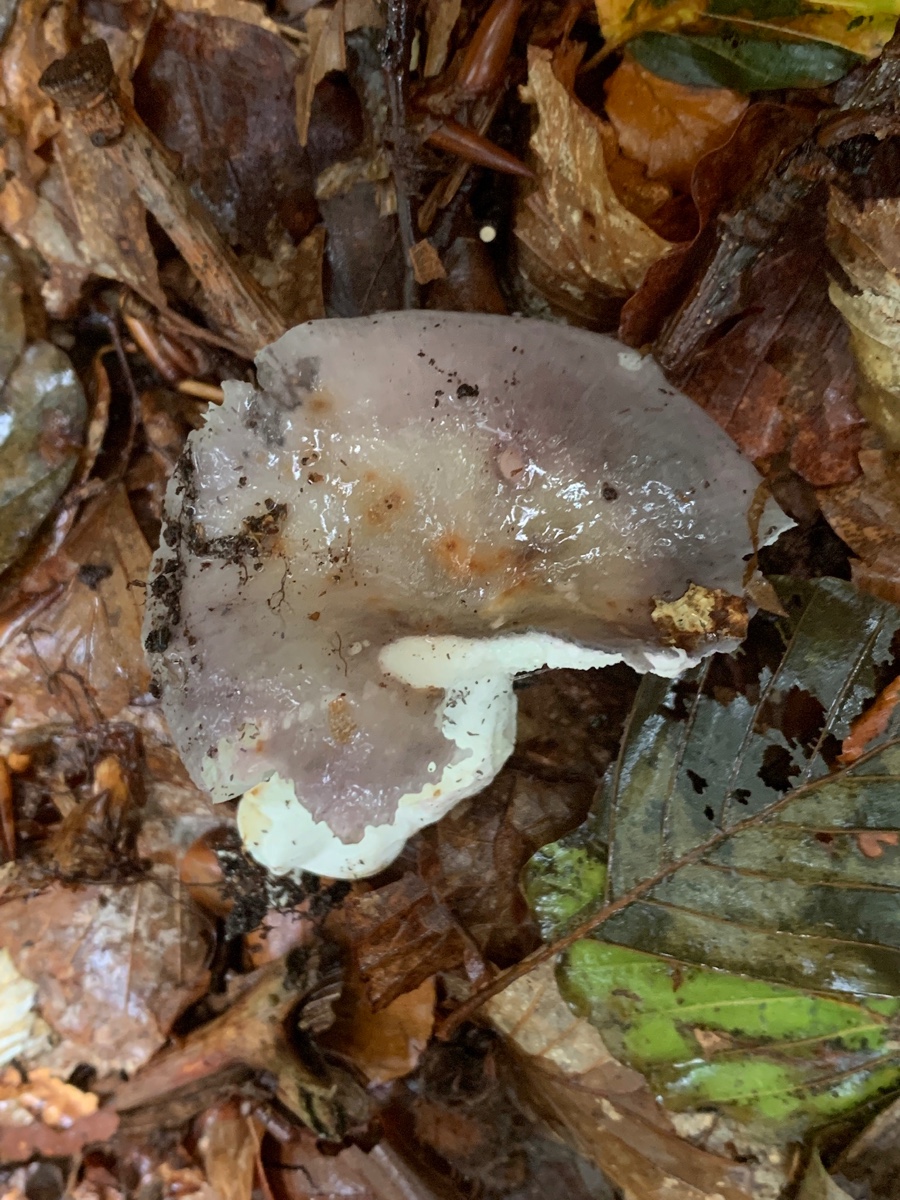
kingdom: Fungi
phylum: Basidiomycota
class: Agaricomycetes
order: Russulales
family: Russulaceae
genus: Russula
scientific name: Russula cyanoxantha
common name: broget skørhat
